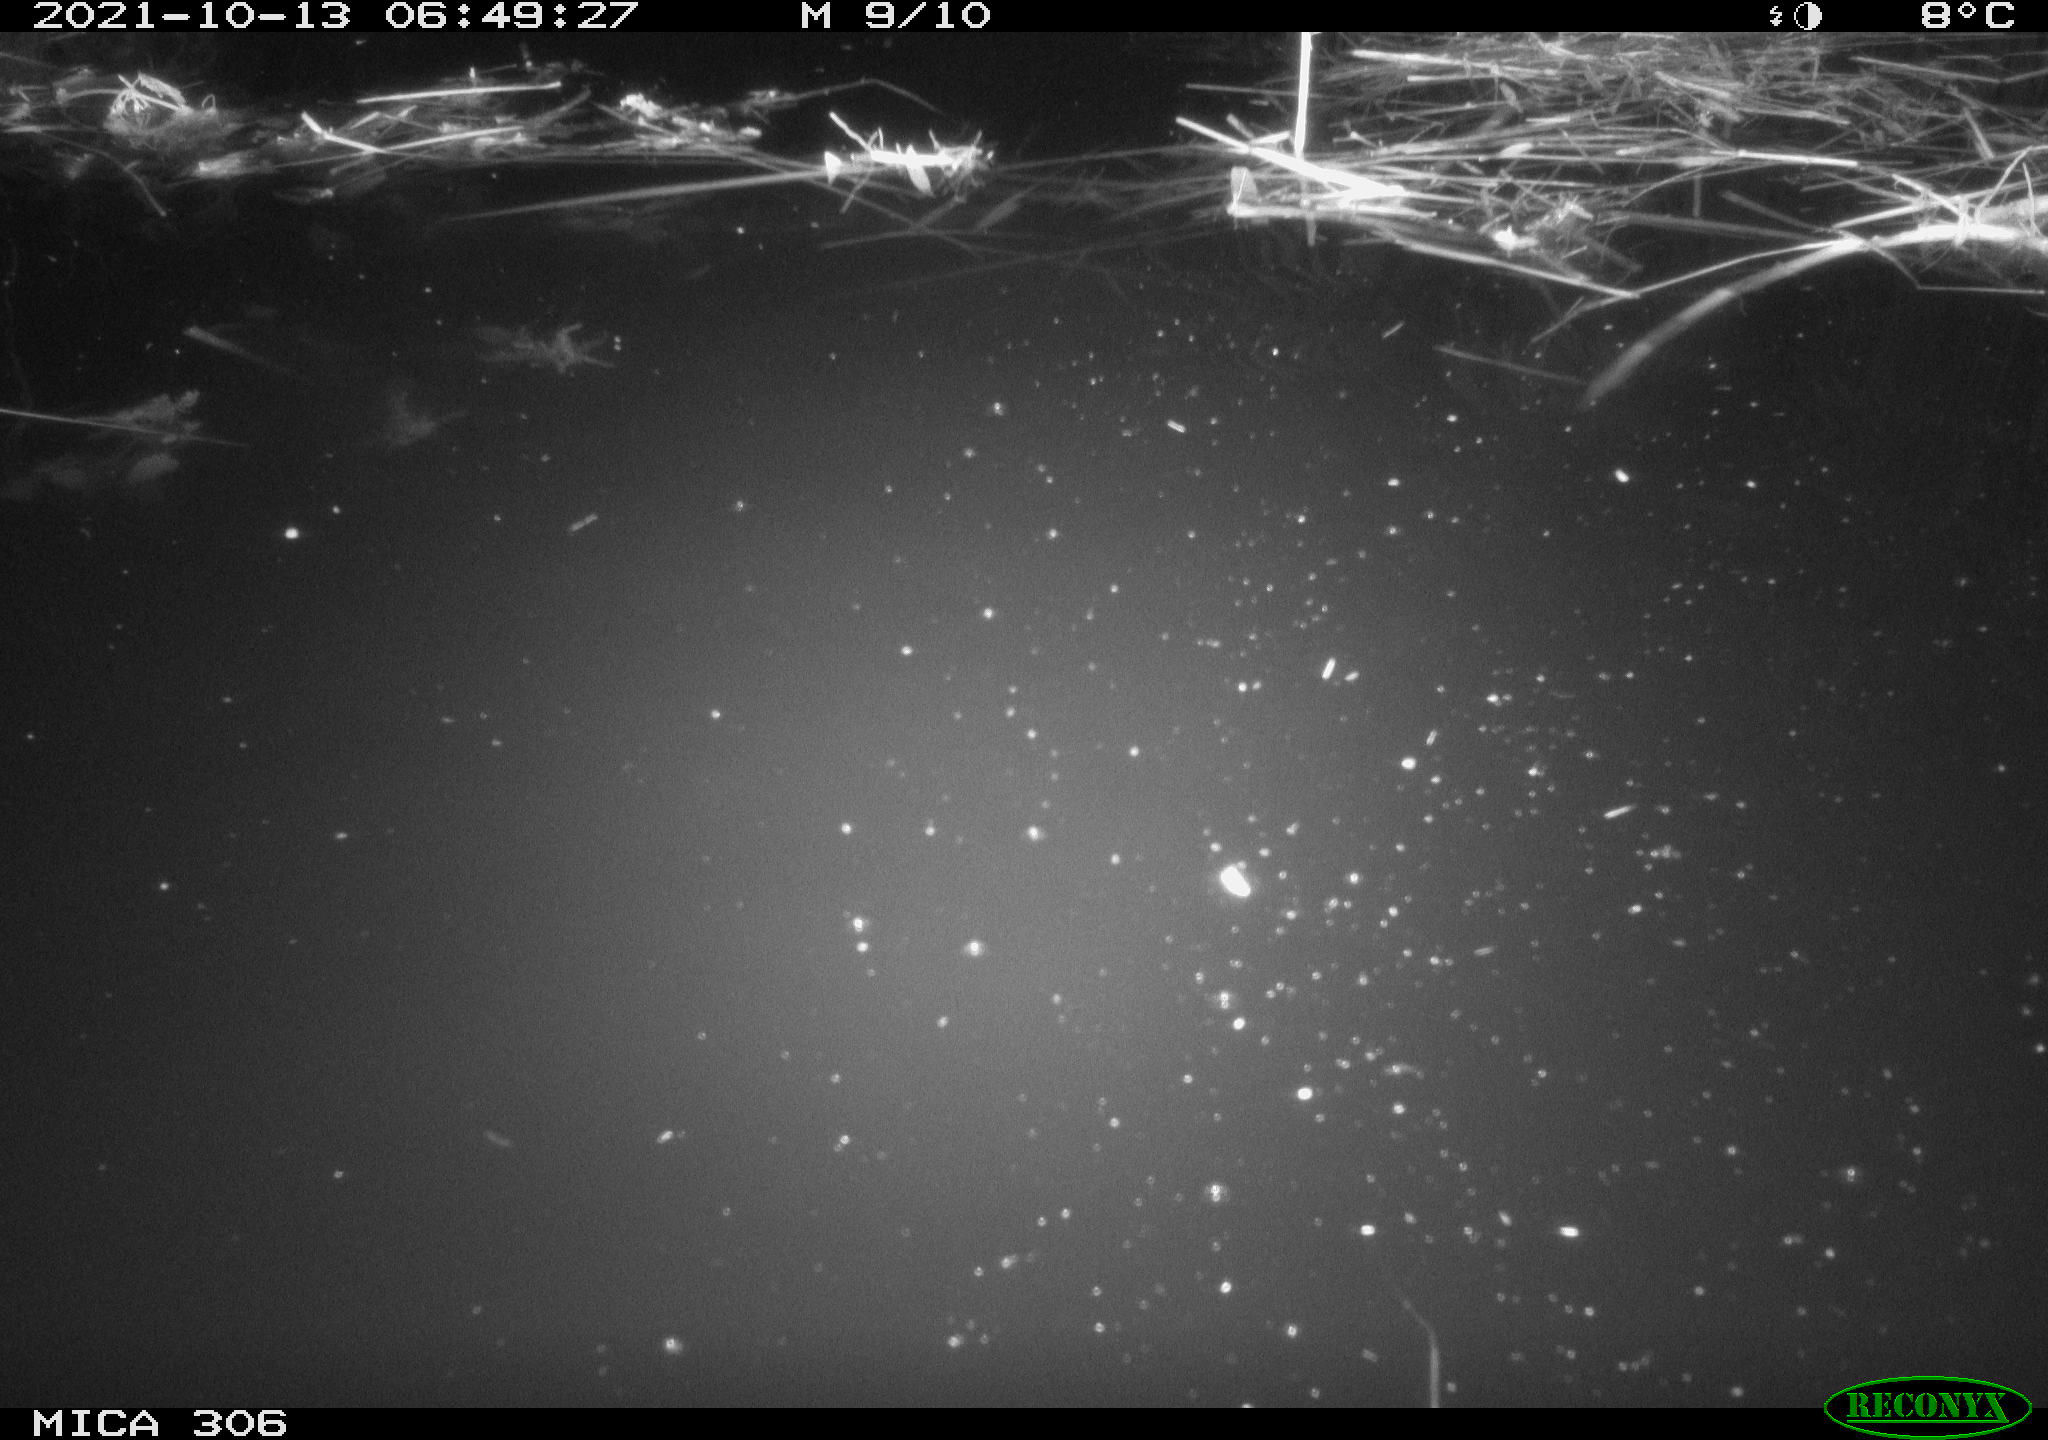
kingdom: Animalia
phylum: Chordata
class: Mammalia
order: Rodentia
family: Cricetidae
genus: Ondatra
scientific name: Ondatra zibethicus
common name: Muskrat
